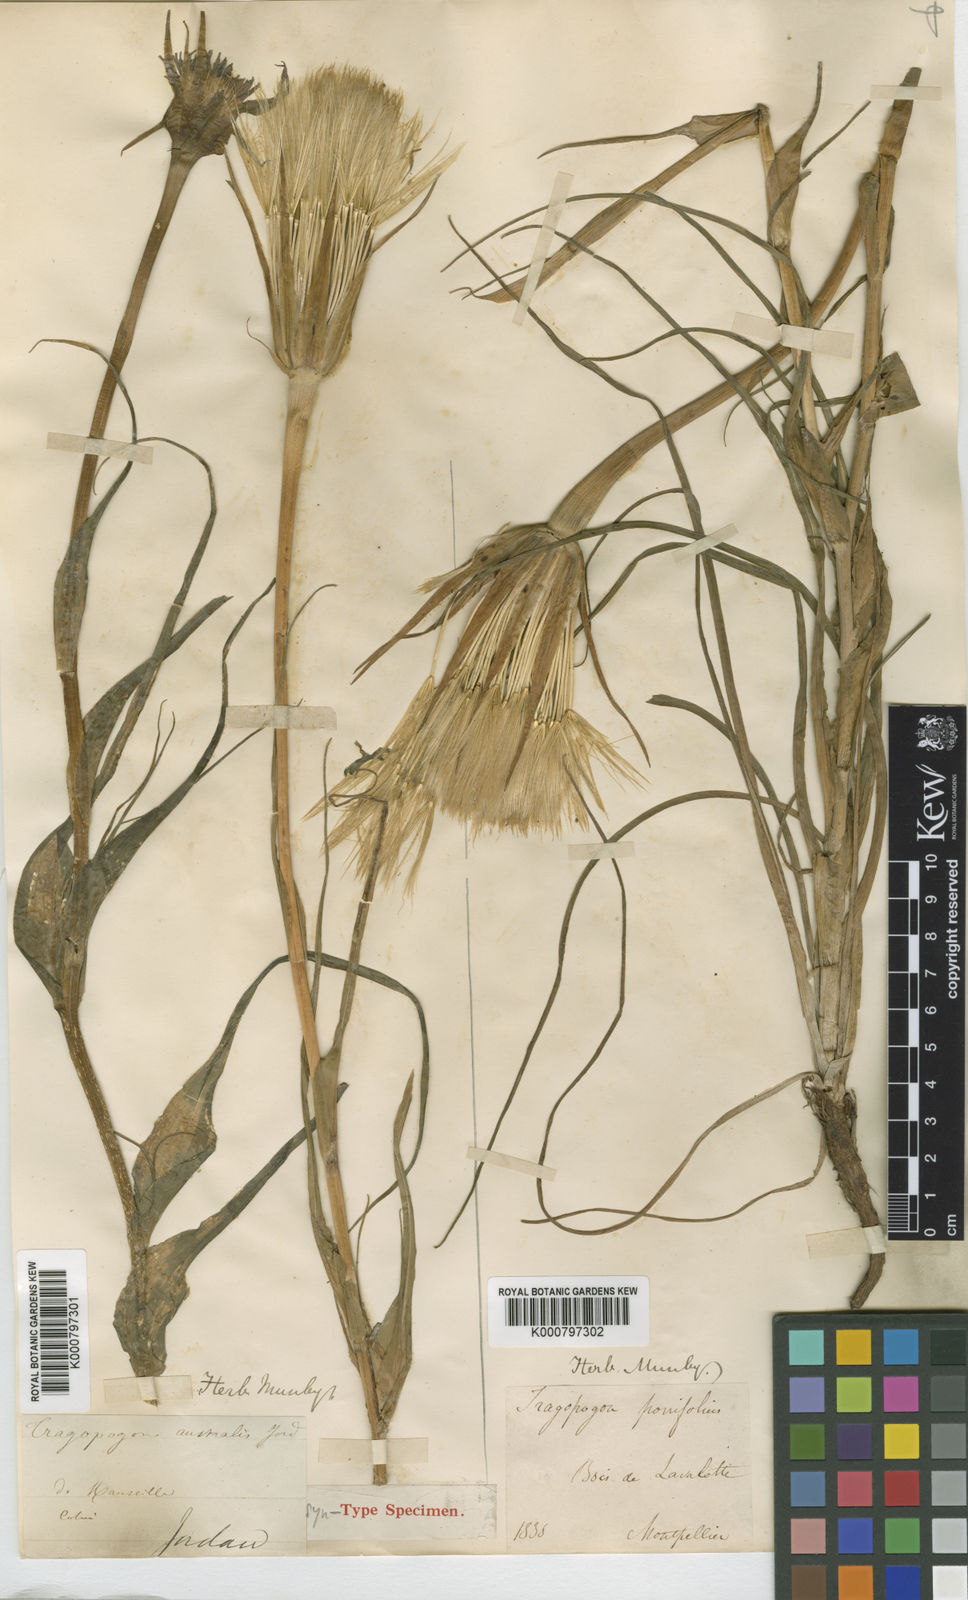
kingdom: Plantae
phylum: Tracheophyta
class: Magnoliopsida
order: Asterales
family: Asteraceae
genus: Tragopogon
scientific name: Tragopogon porrifolius
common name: Salsify
